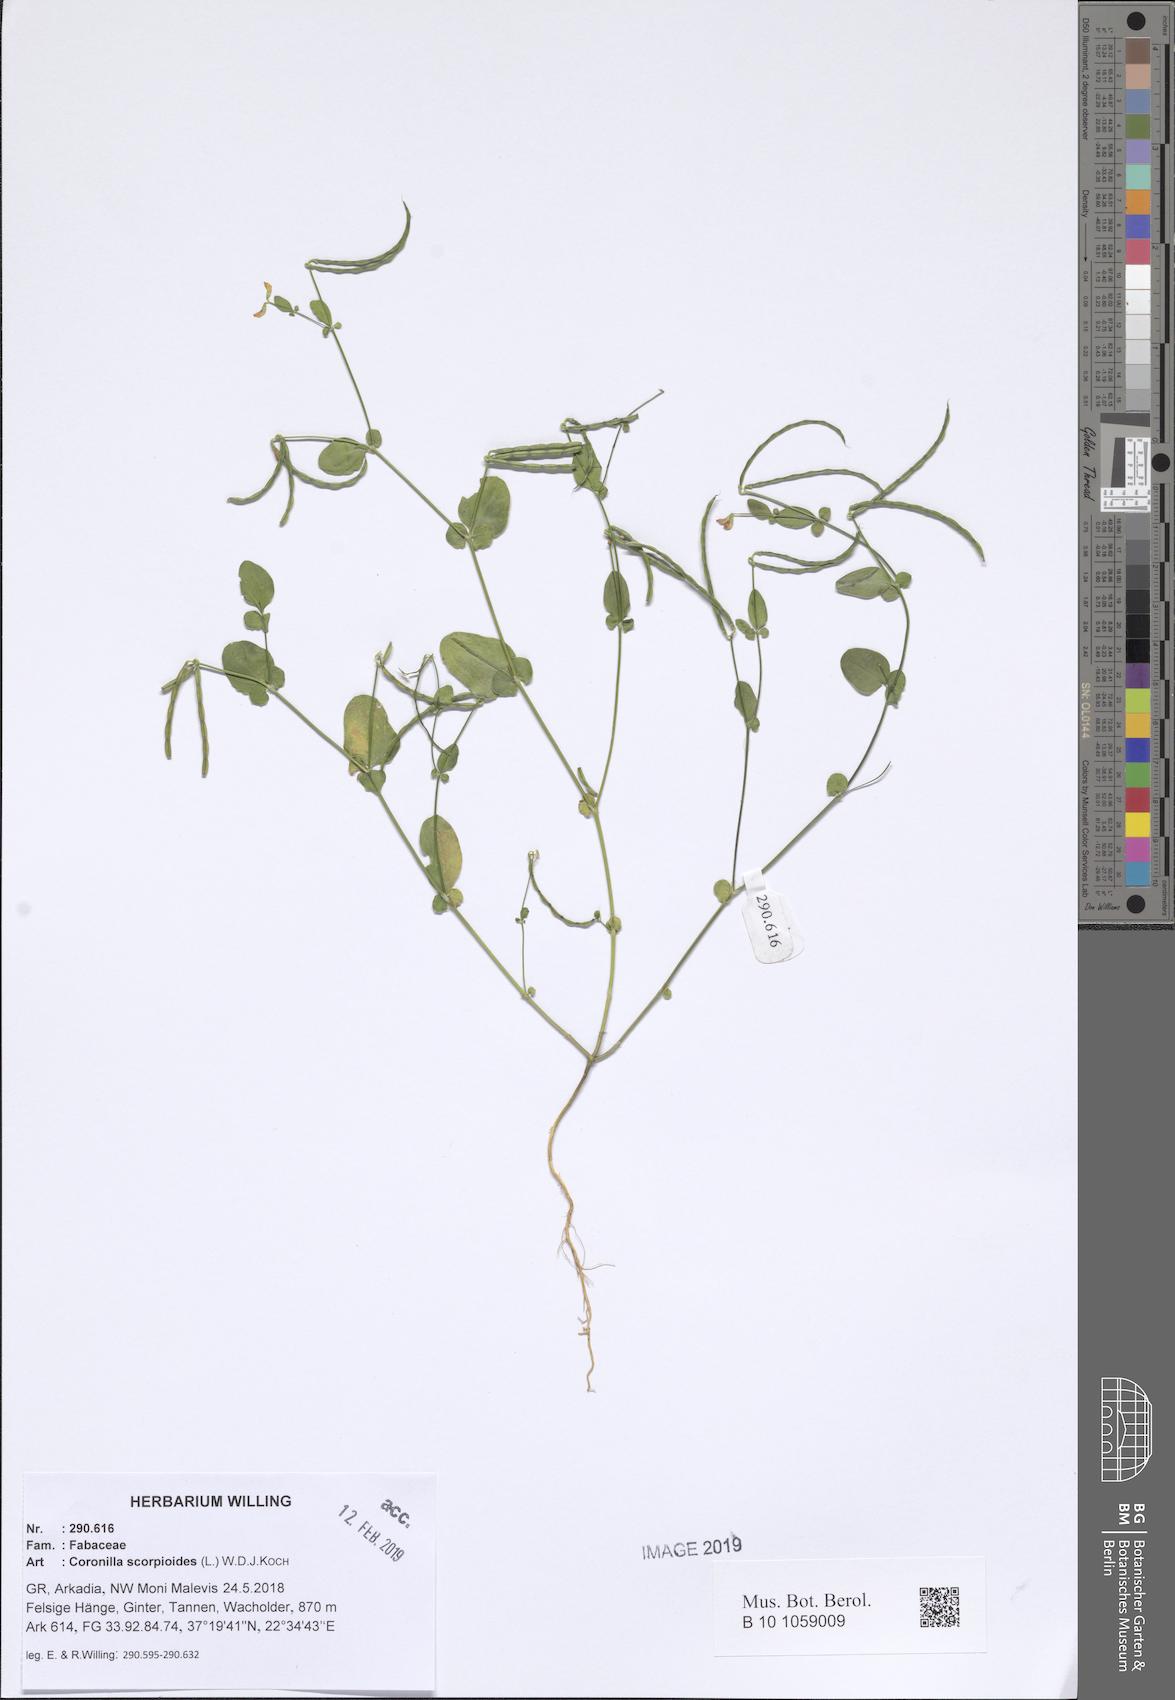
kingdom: Plantae
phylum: Tracheophyta
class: Magnoliopsida
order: Fabales
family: Fabaceae
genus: Coronilla
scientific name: Coronilla scorpioides
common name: Annual scorpion-vetch
